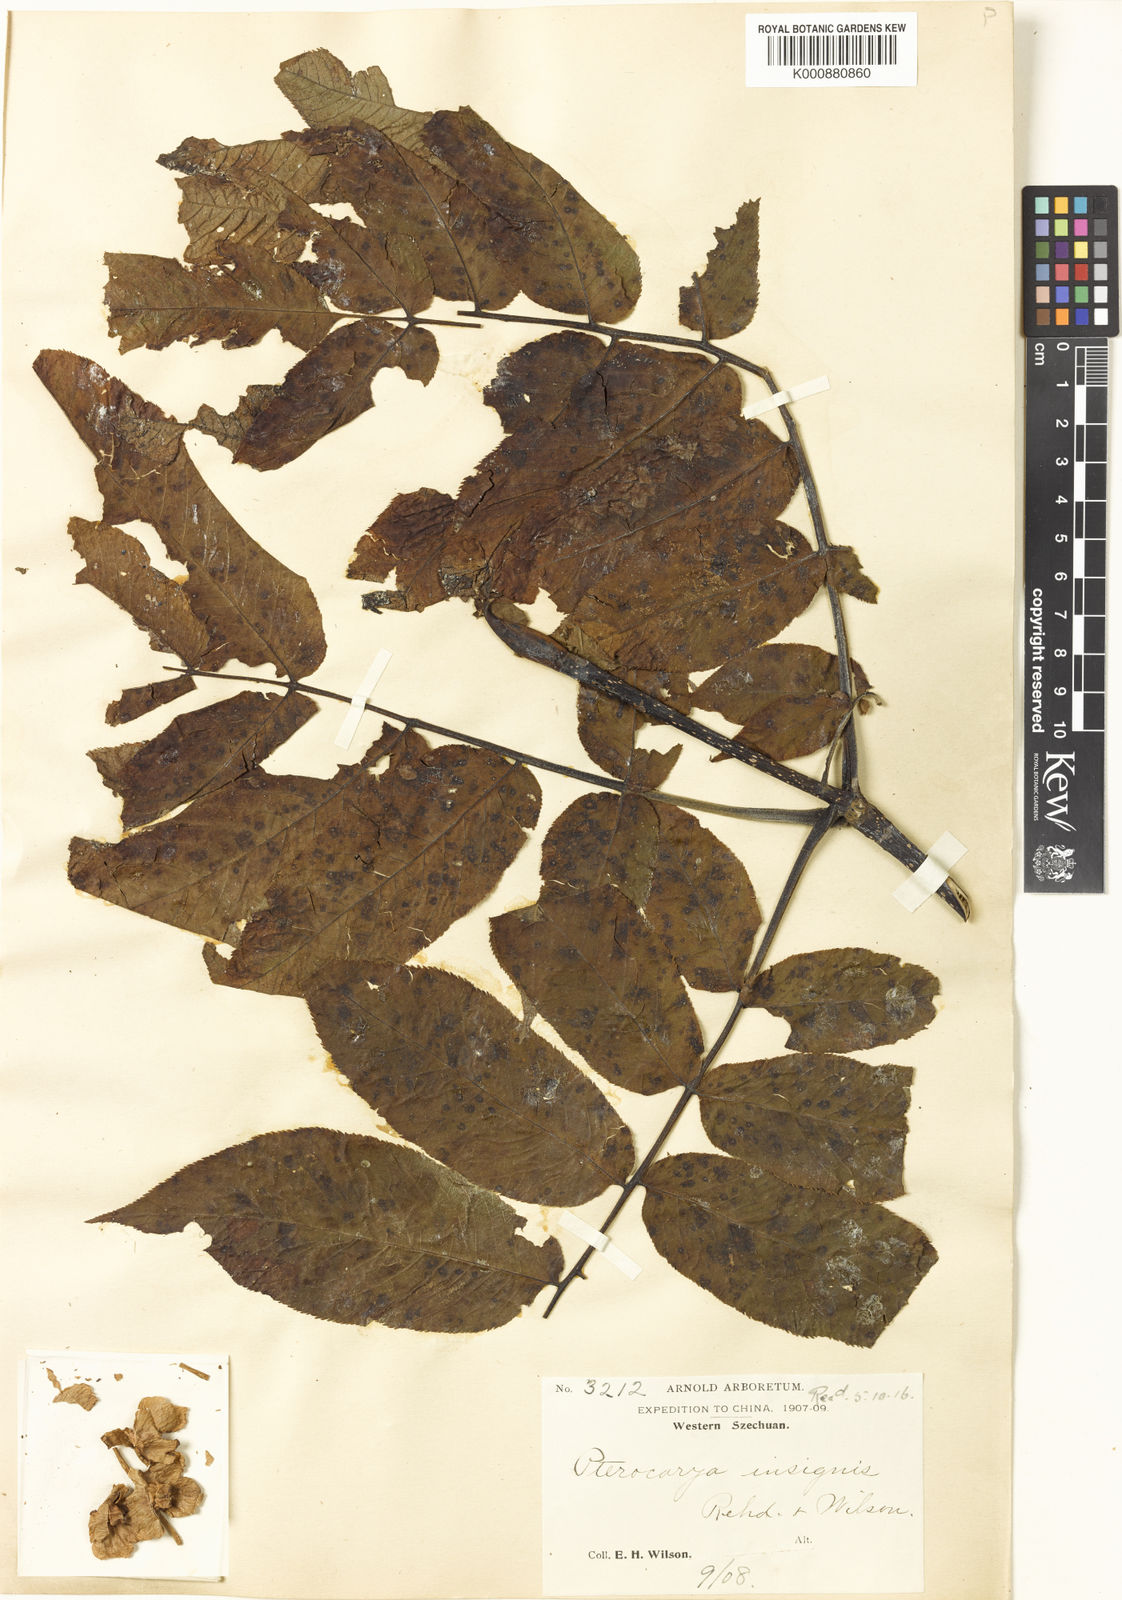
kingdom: Plantae
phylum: Tracheophyta
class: Magnoliopsida
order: Fagales
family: Juglandaceae
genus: Pterocarya
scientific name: Pterocarya macroptera
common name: Large-winged wingnut
